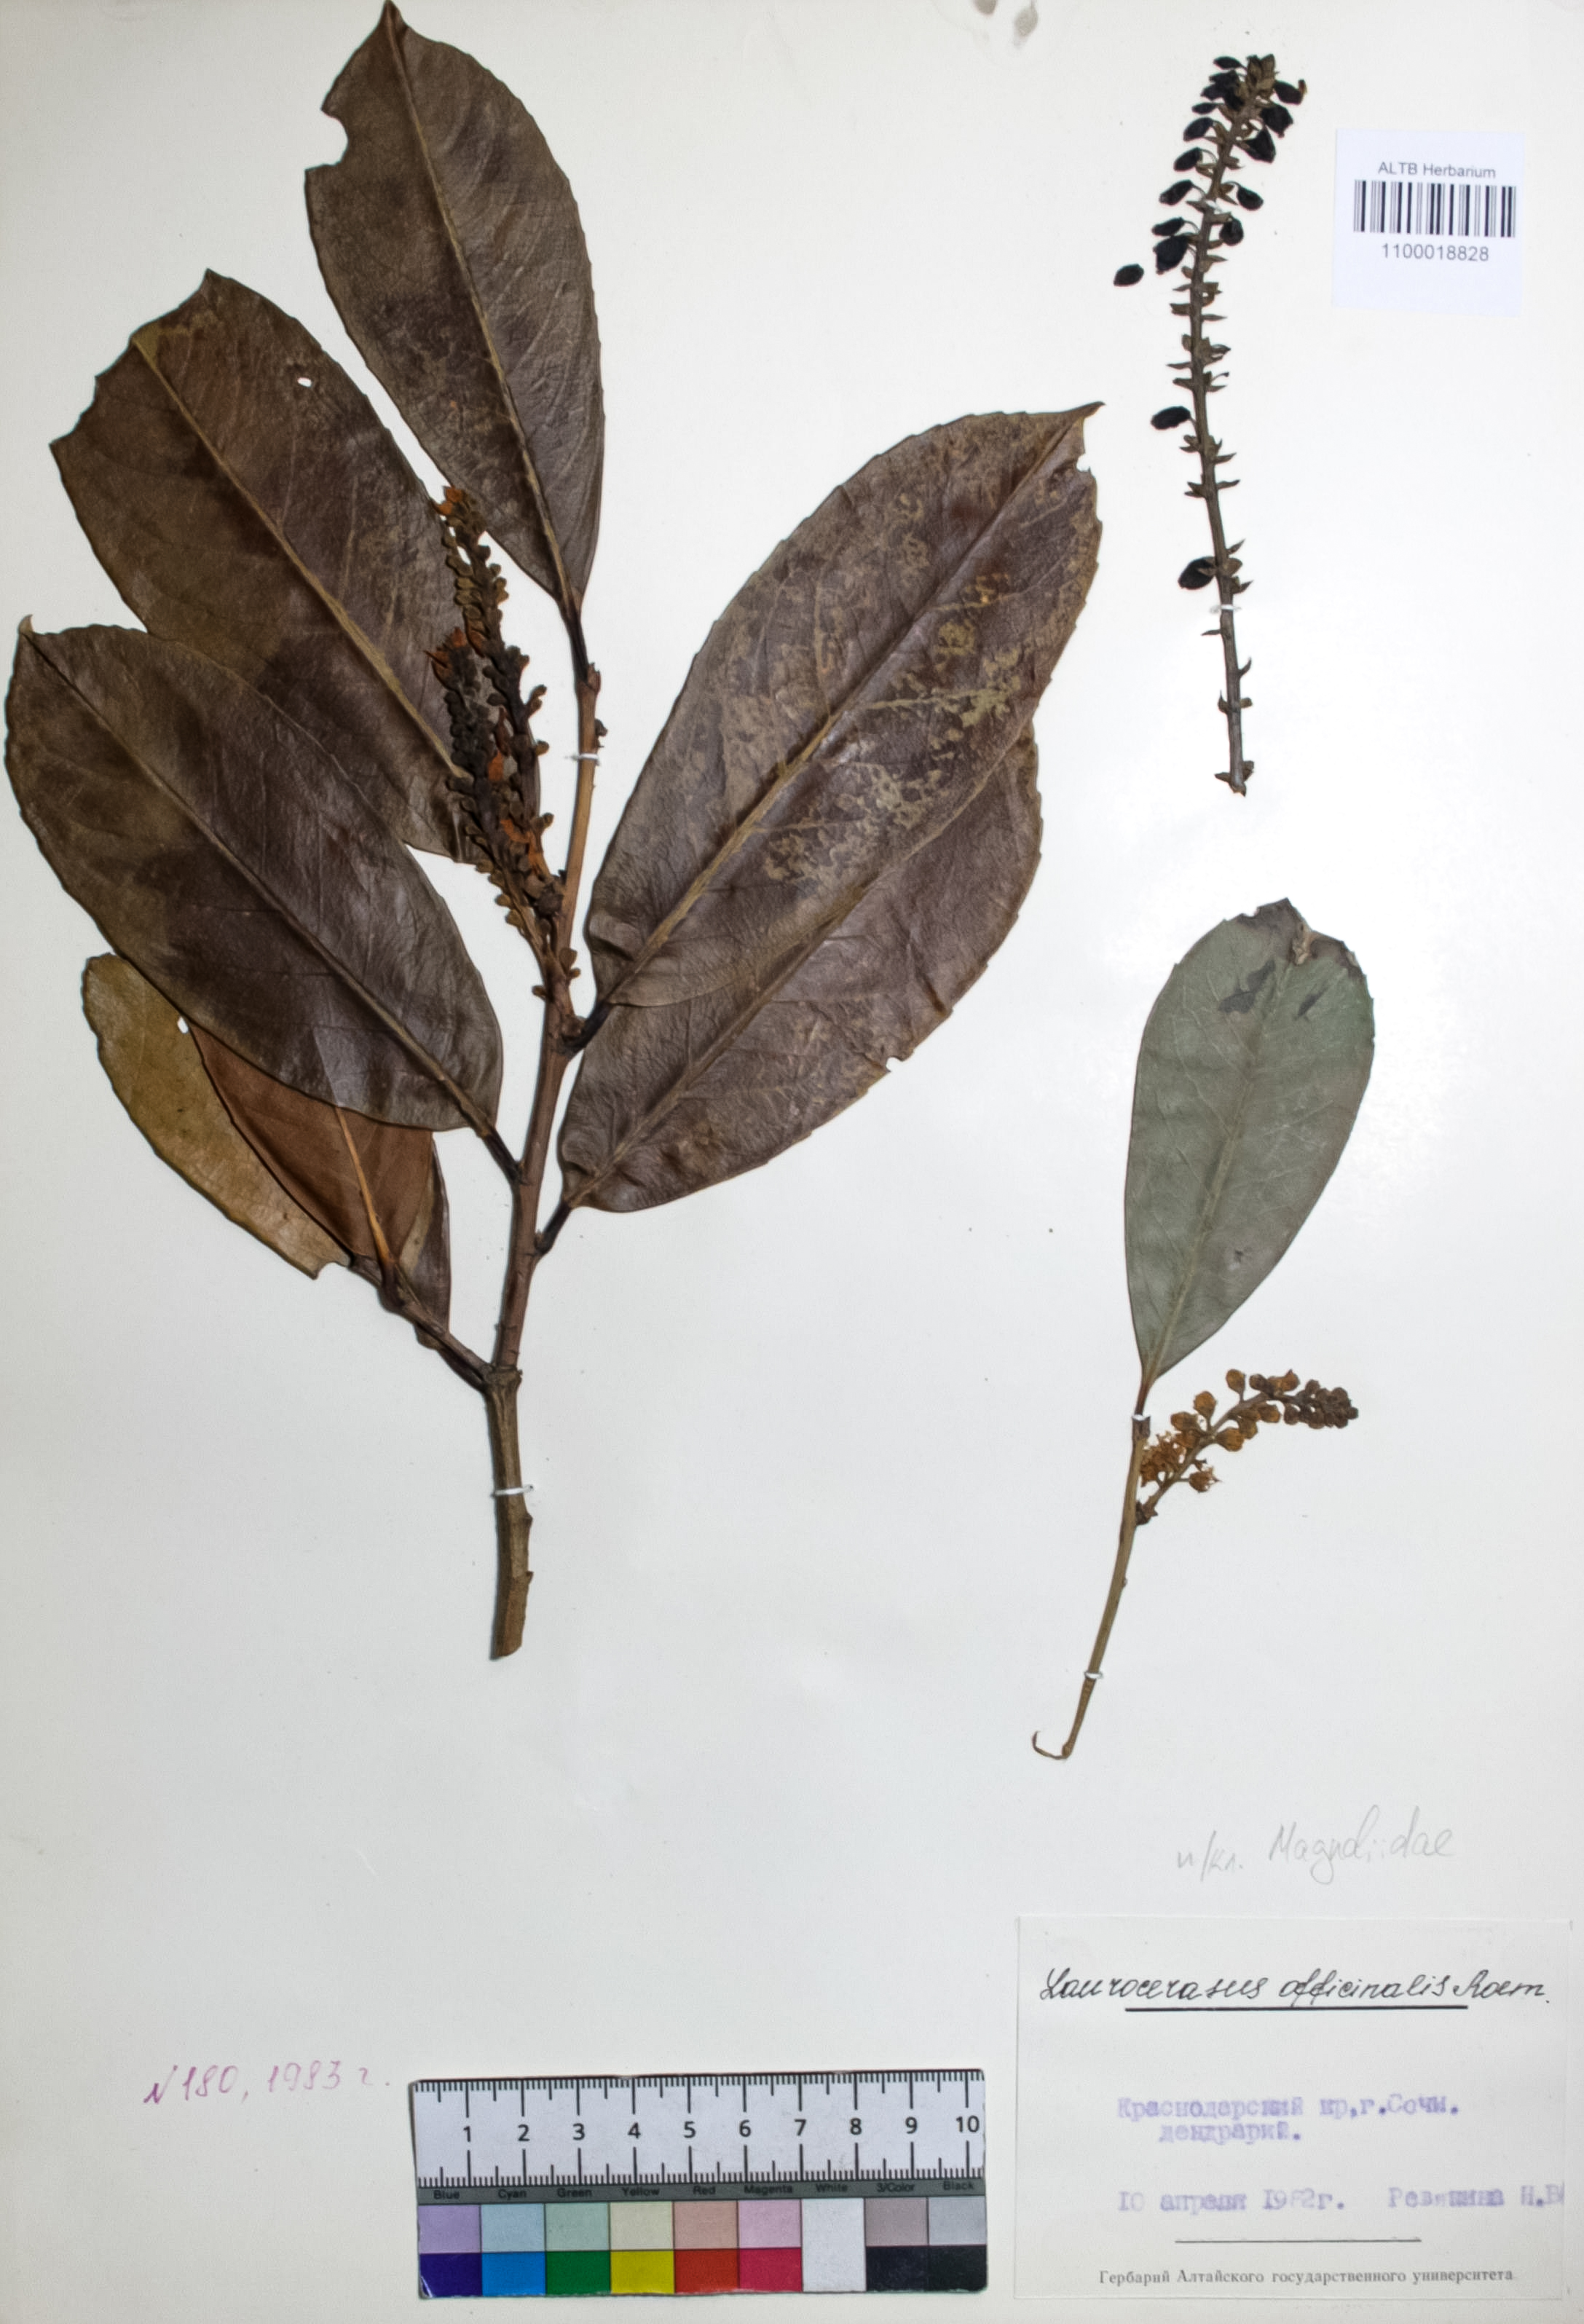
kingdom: Plantae
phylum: Tracheophyta
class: Magnoliopsida
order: Rosales
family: Rosaceae
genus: Prunus
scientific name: Prunus laurocerasus
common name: Cherry laurel
